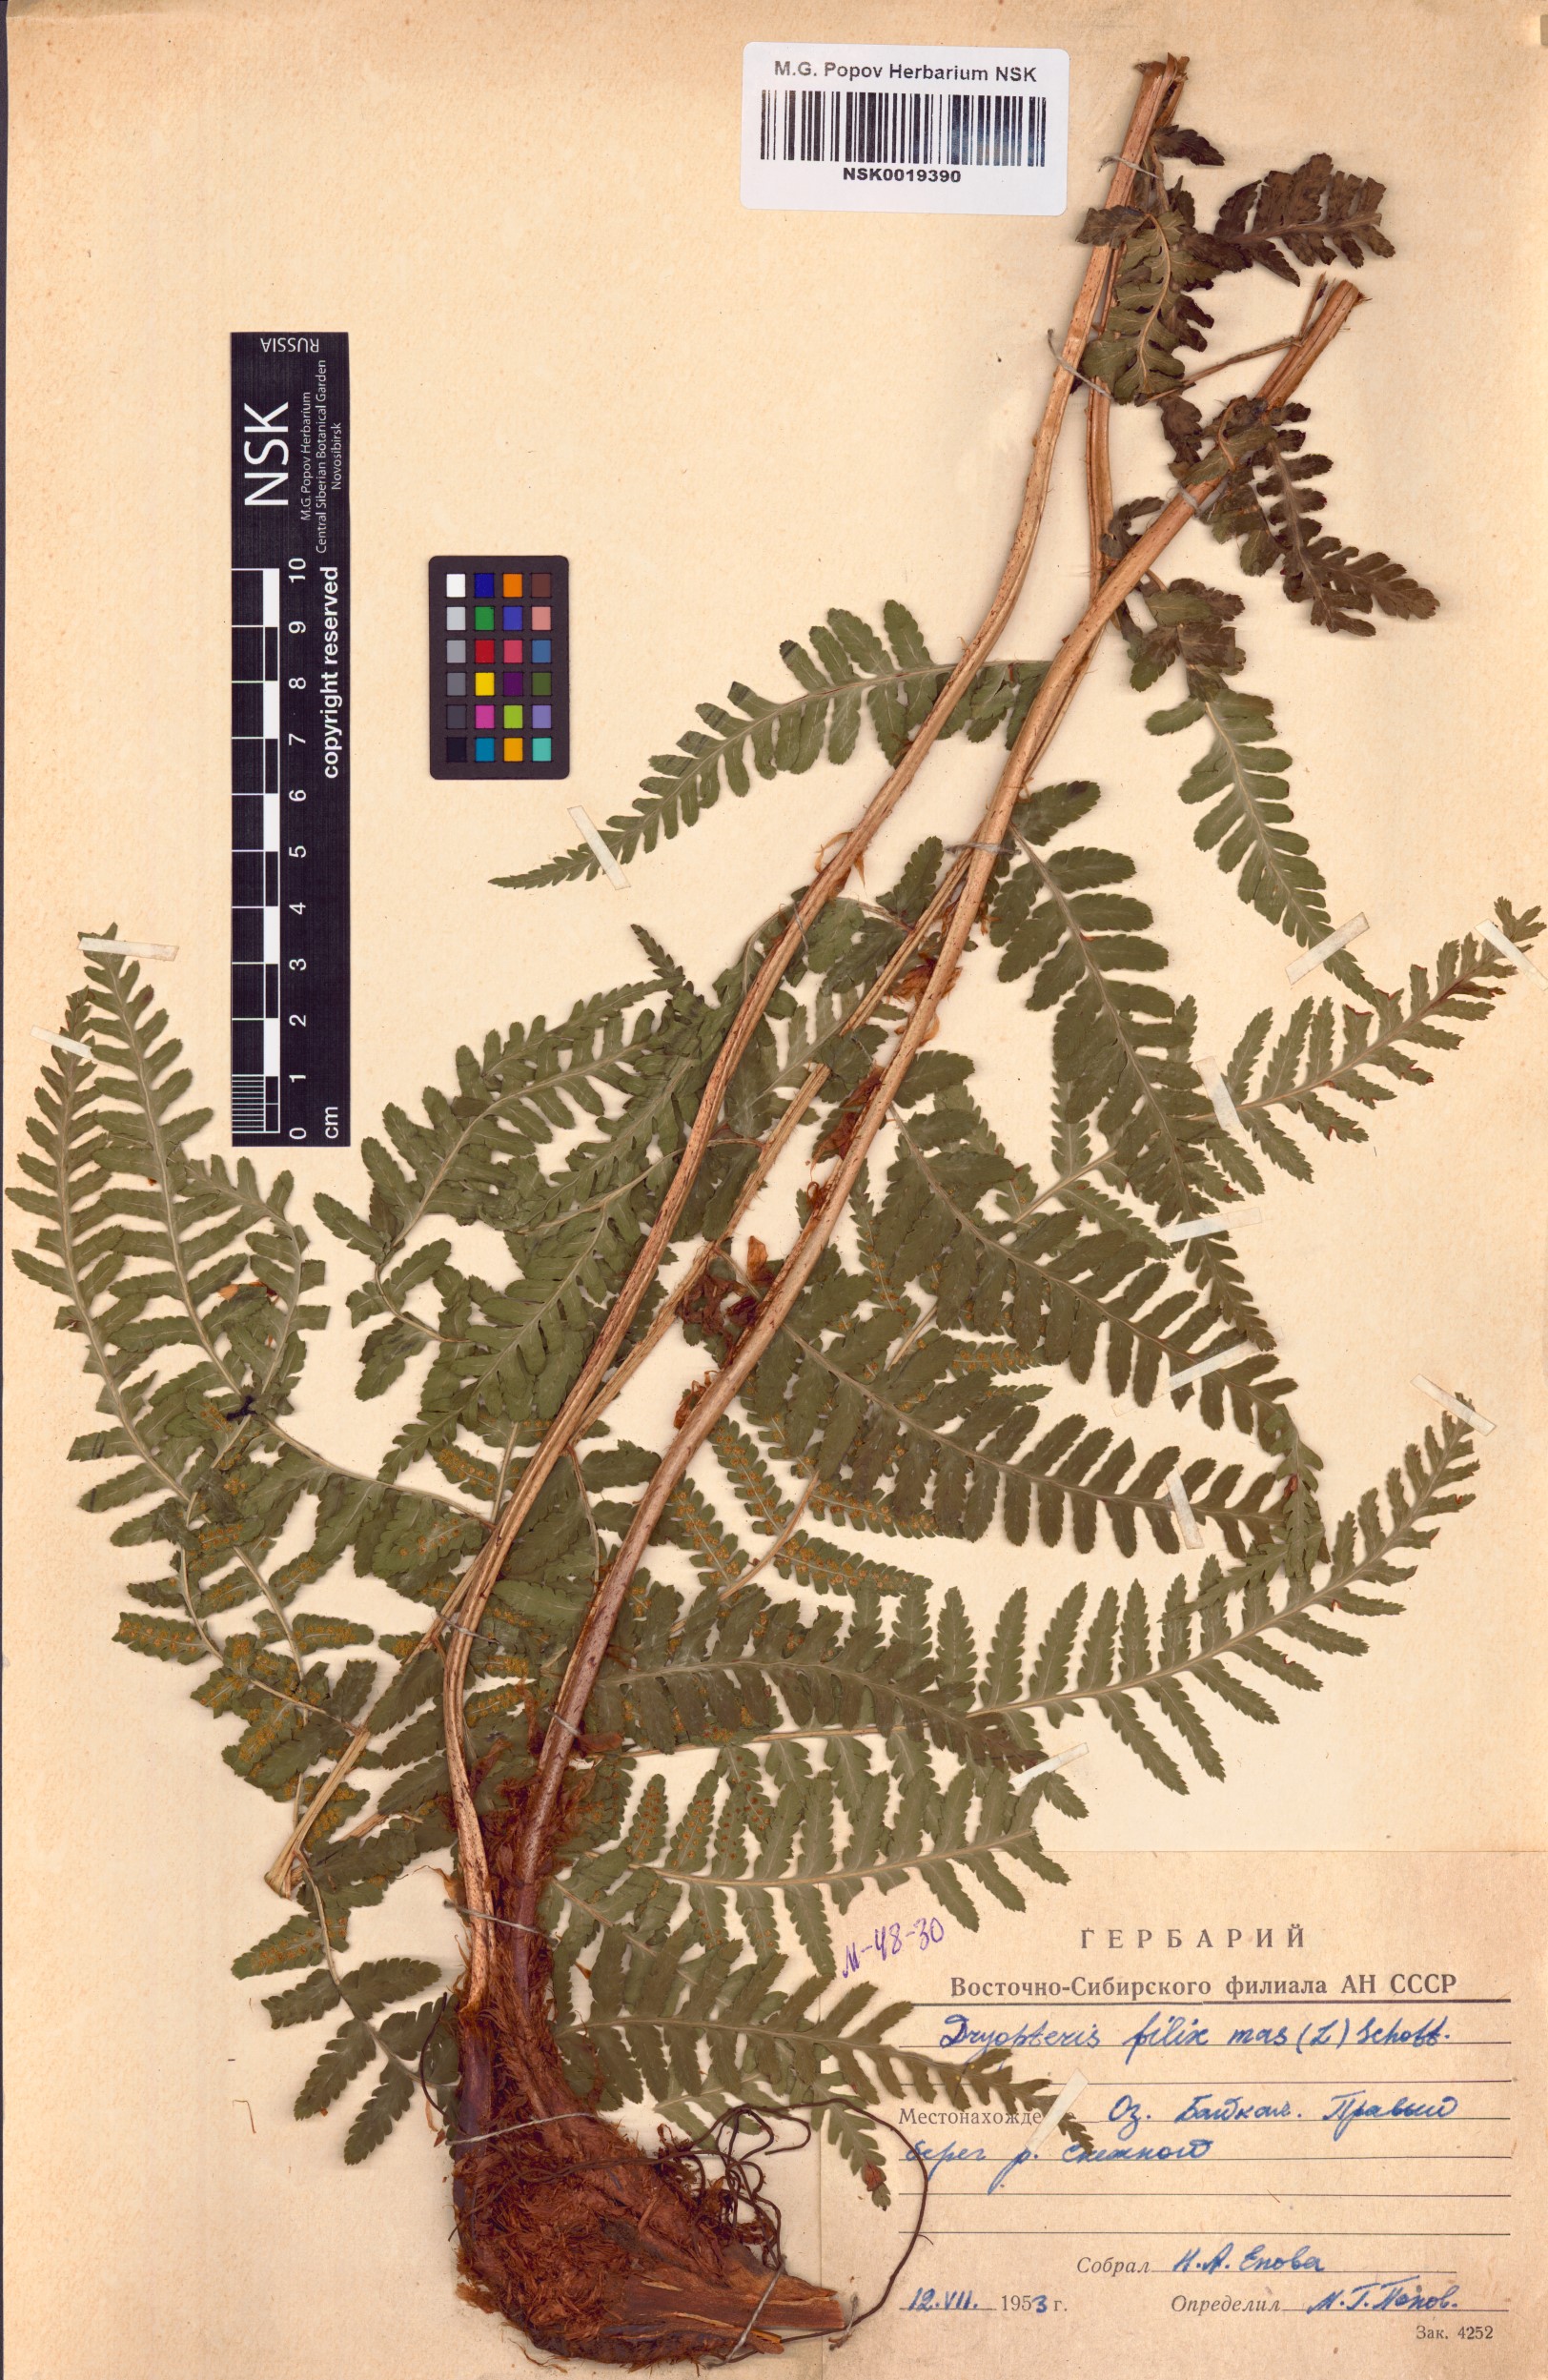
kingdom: Plantae
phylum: Tracheophyta
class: Polypodiopsida
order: Polypodiales
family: Dryopteridaceae
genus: Dryopteris
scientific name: Dryopteris filix-mas
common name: Male fern
